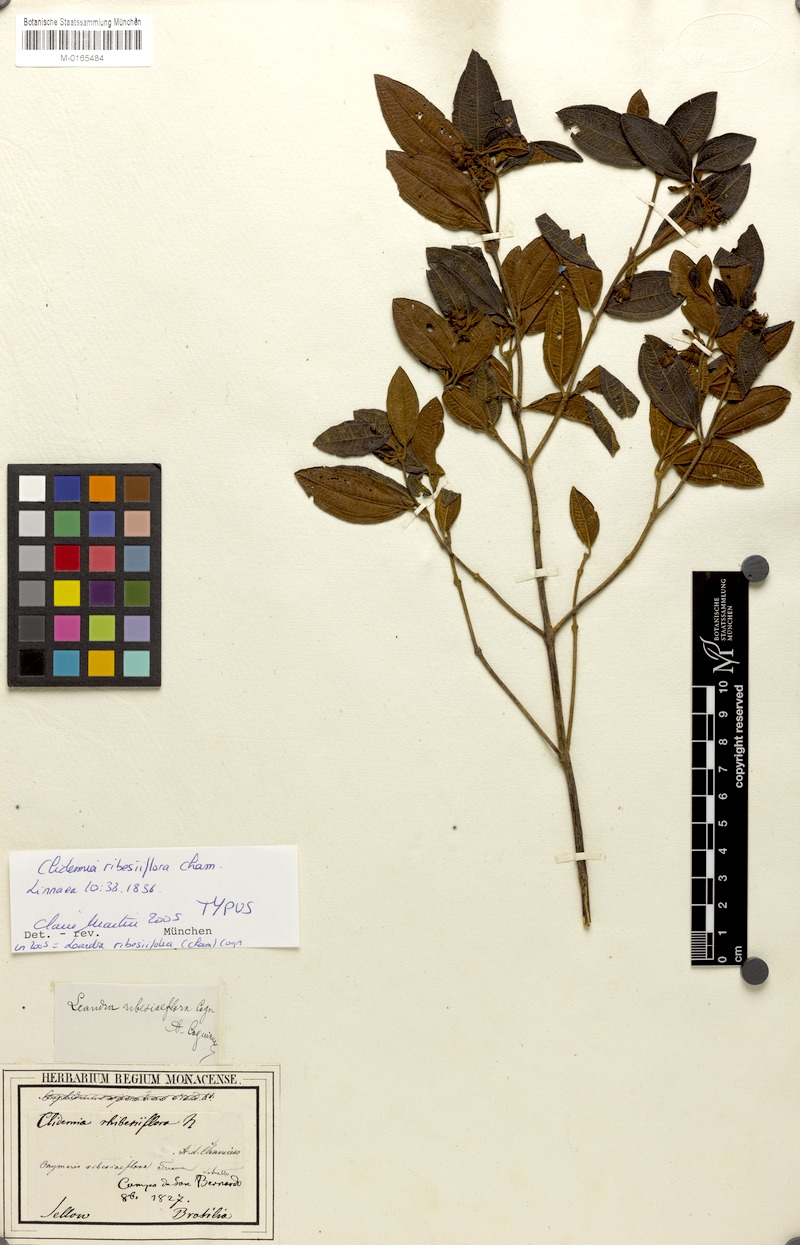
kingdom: Plantae
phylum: Tracheophyta
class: Magnoliopsida
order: Myrtales
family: Melastomataceae
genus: Miconia
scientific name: Miconia Leandra ribesiaeflora
